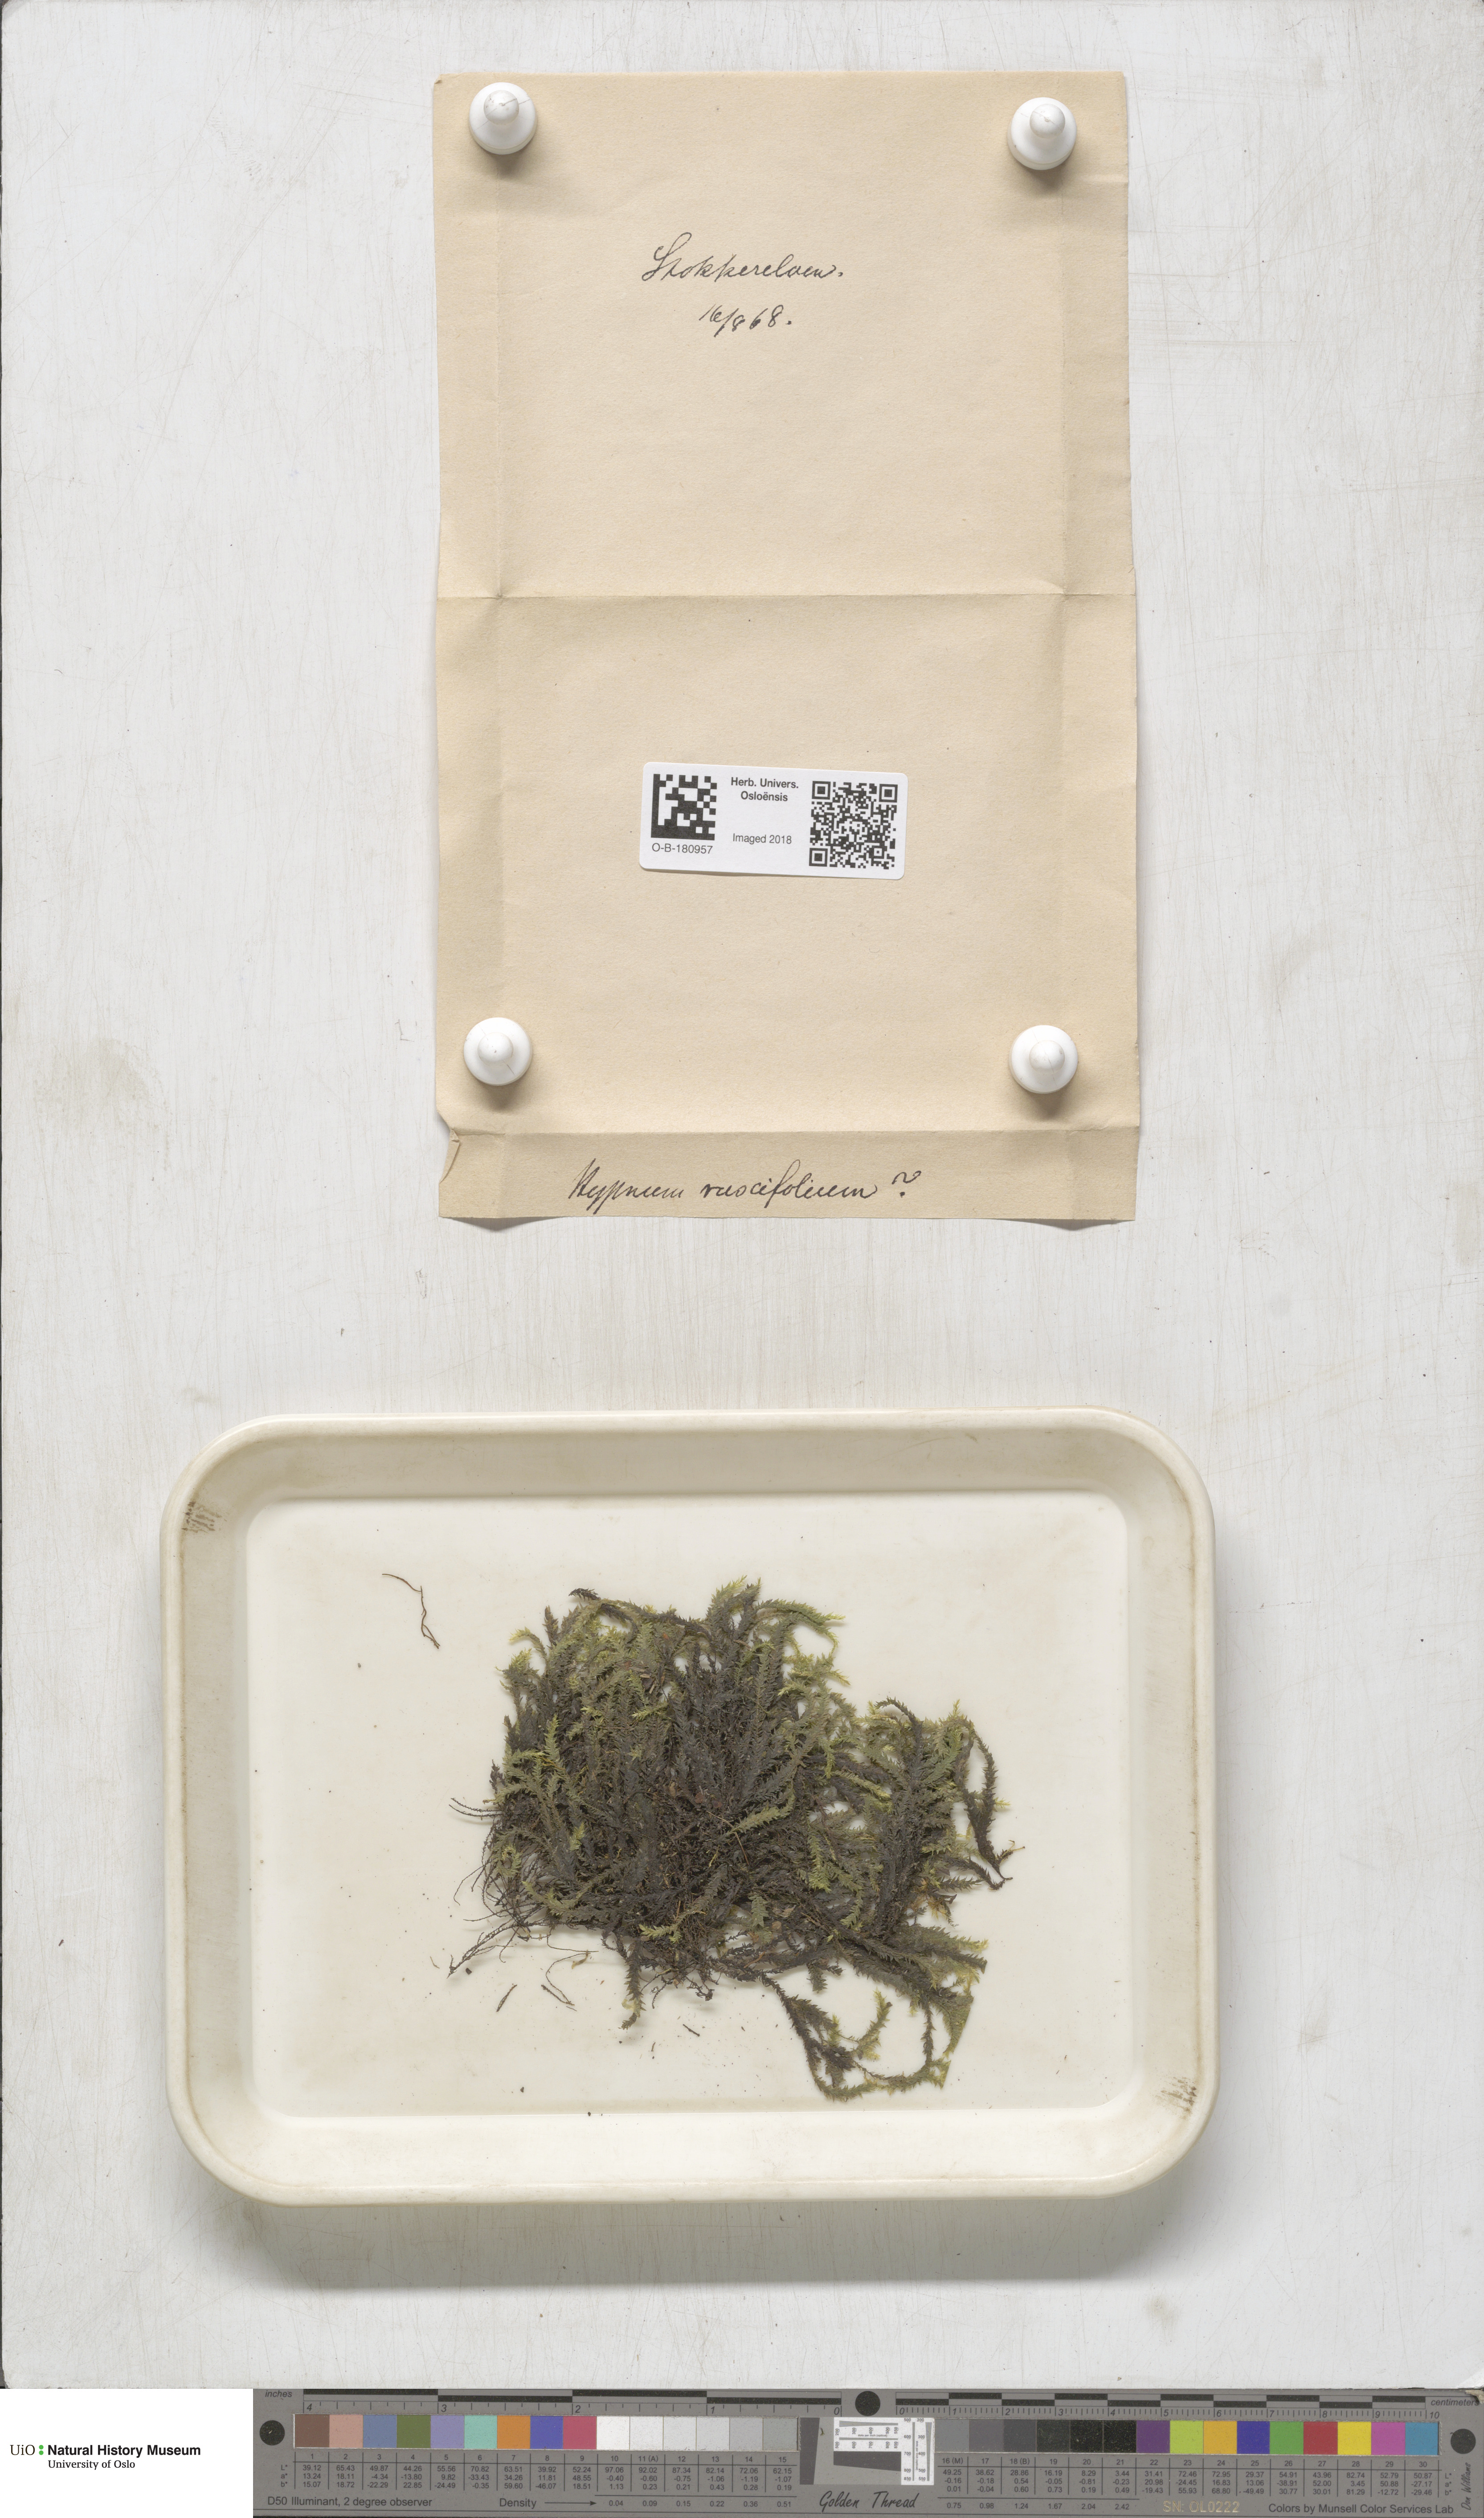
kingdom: Plantae
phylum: Bryophyta
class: Bryopsida
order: Hypnales
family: Brachytheciaceae
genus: Rhynchostegium
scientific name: Rhynchostegium riparioides
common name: Platyhypnidium moss
